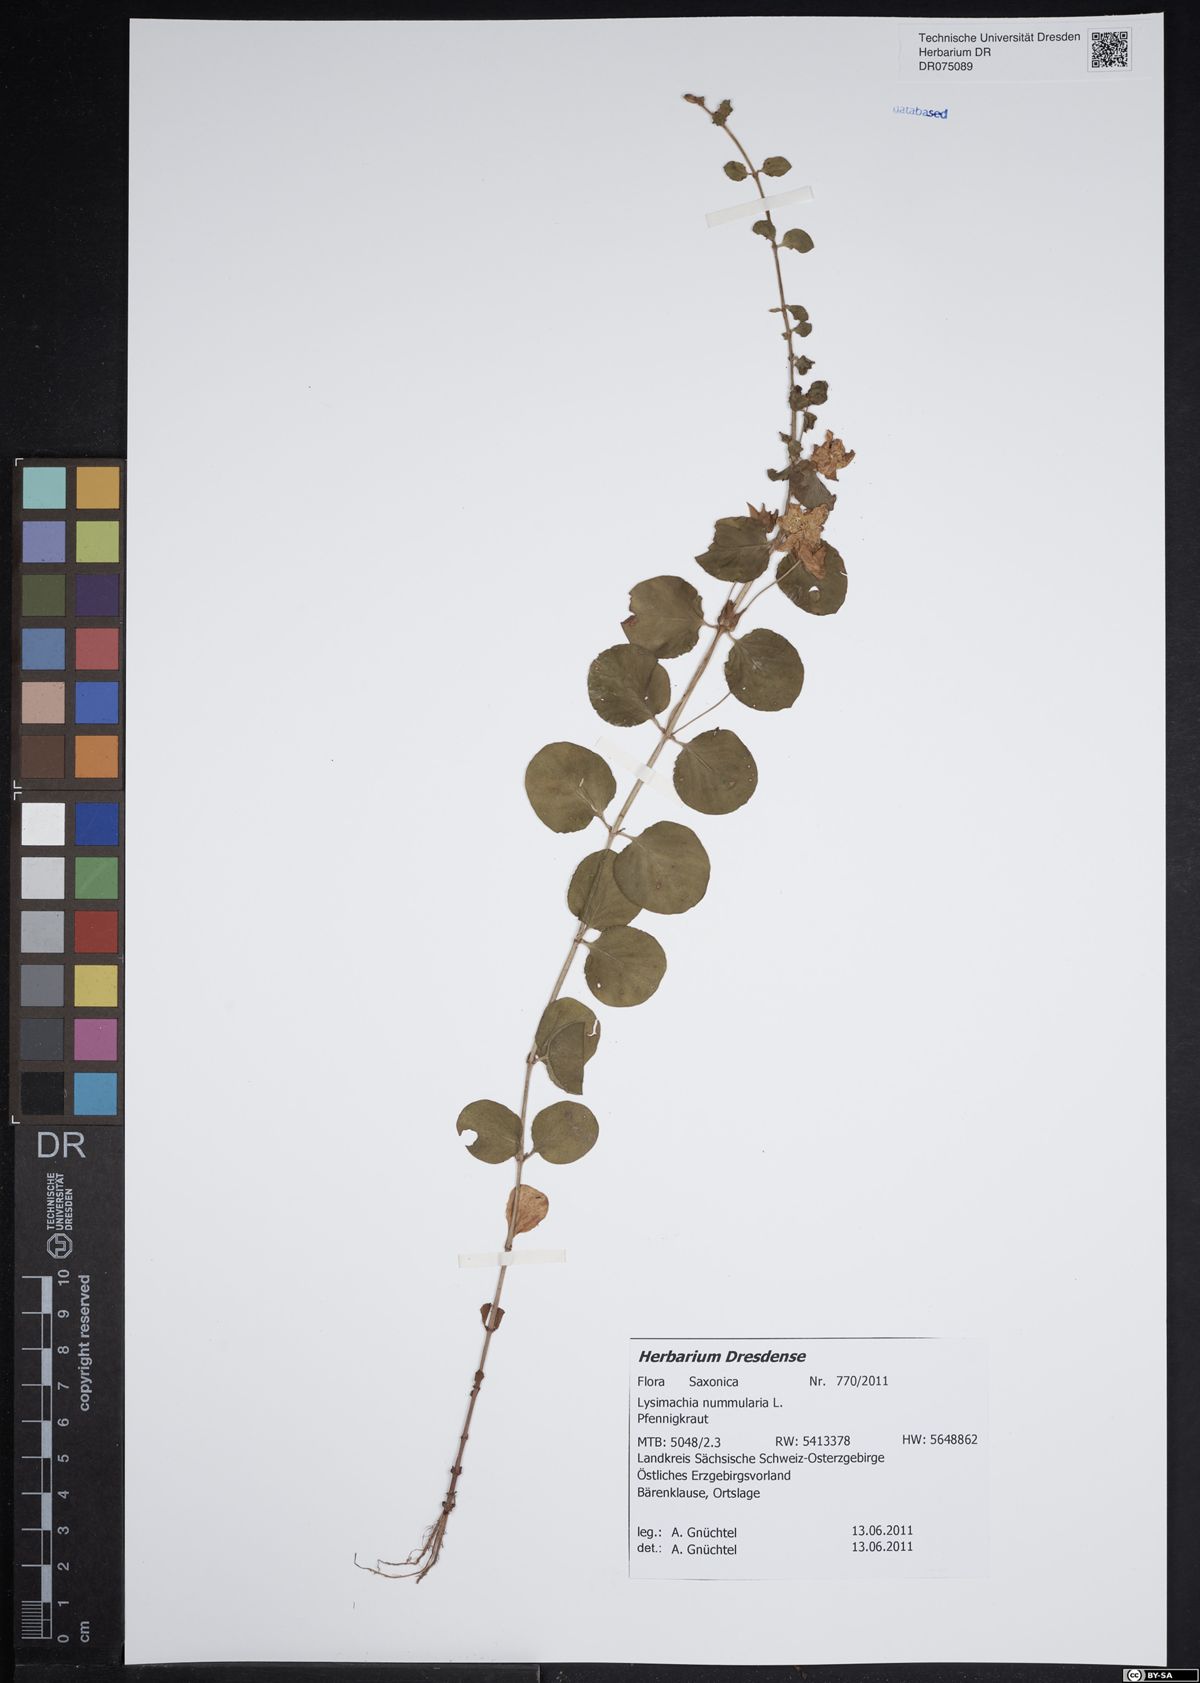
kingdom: Plantae
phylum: Tracheophyta
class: Magnoliopsida
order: Ericales
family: Primulaceae
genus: Lysimachia
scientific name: Lysimachia nummularia
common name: Moneywort
